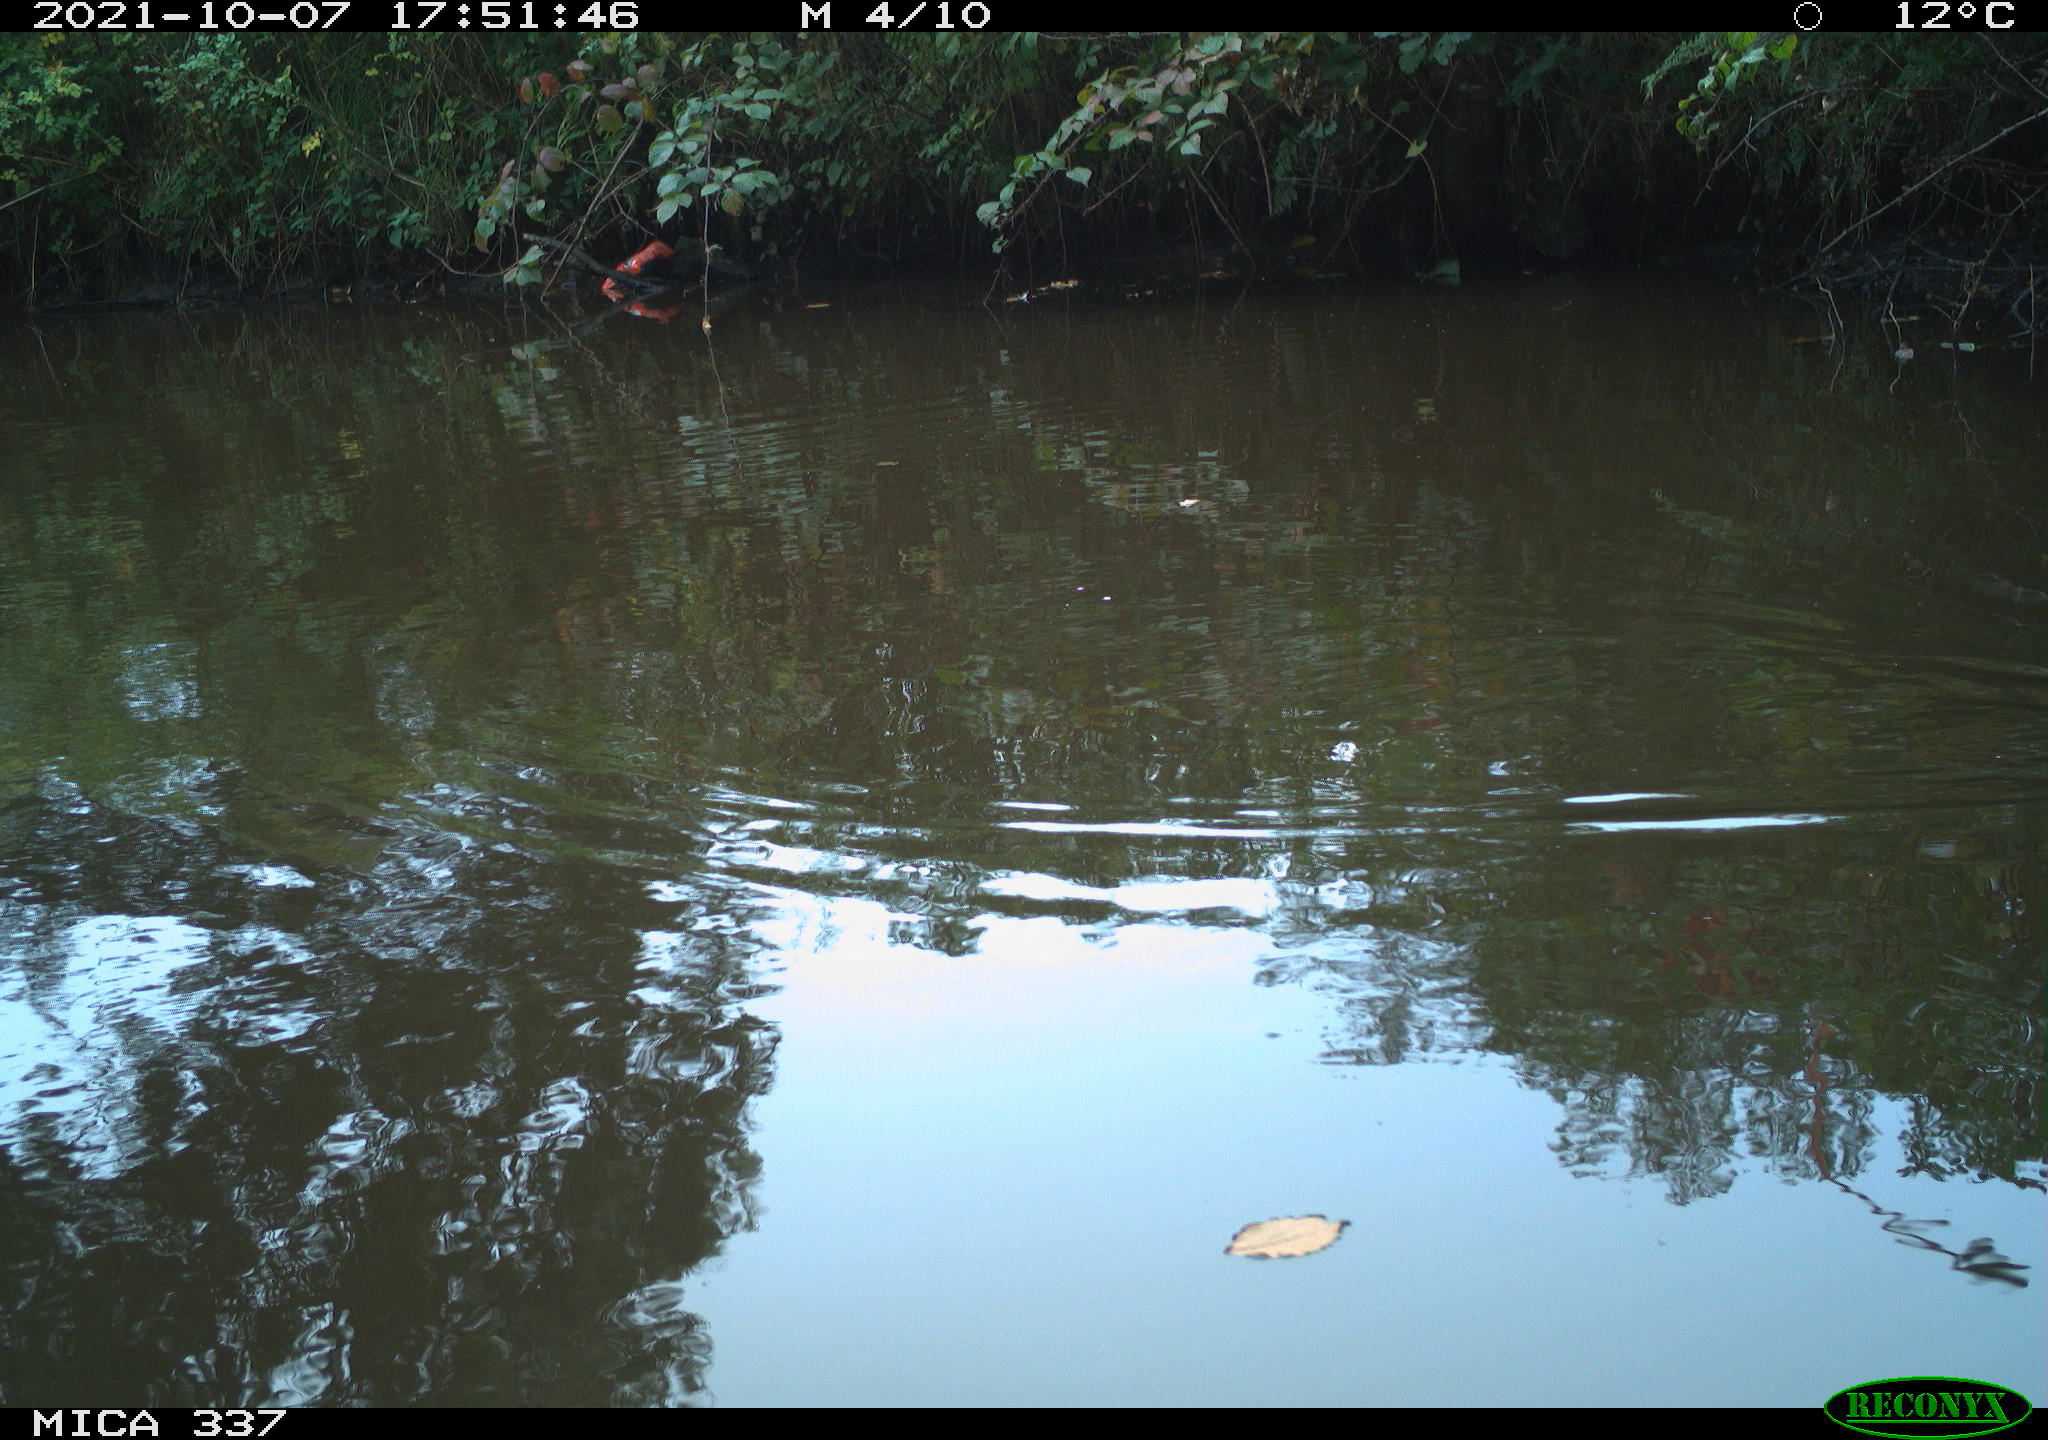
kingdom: Animalia
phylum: Chordata
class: Aves
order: Gruiformes
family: Rallidae
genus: Gallinula
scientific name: Gallinula chloropus
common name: Common moorhen
